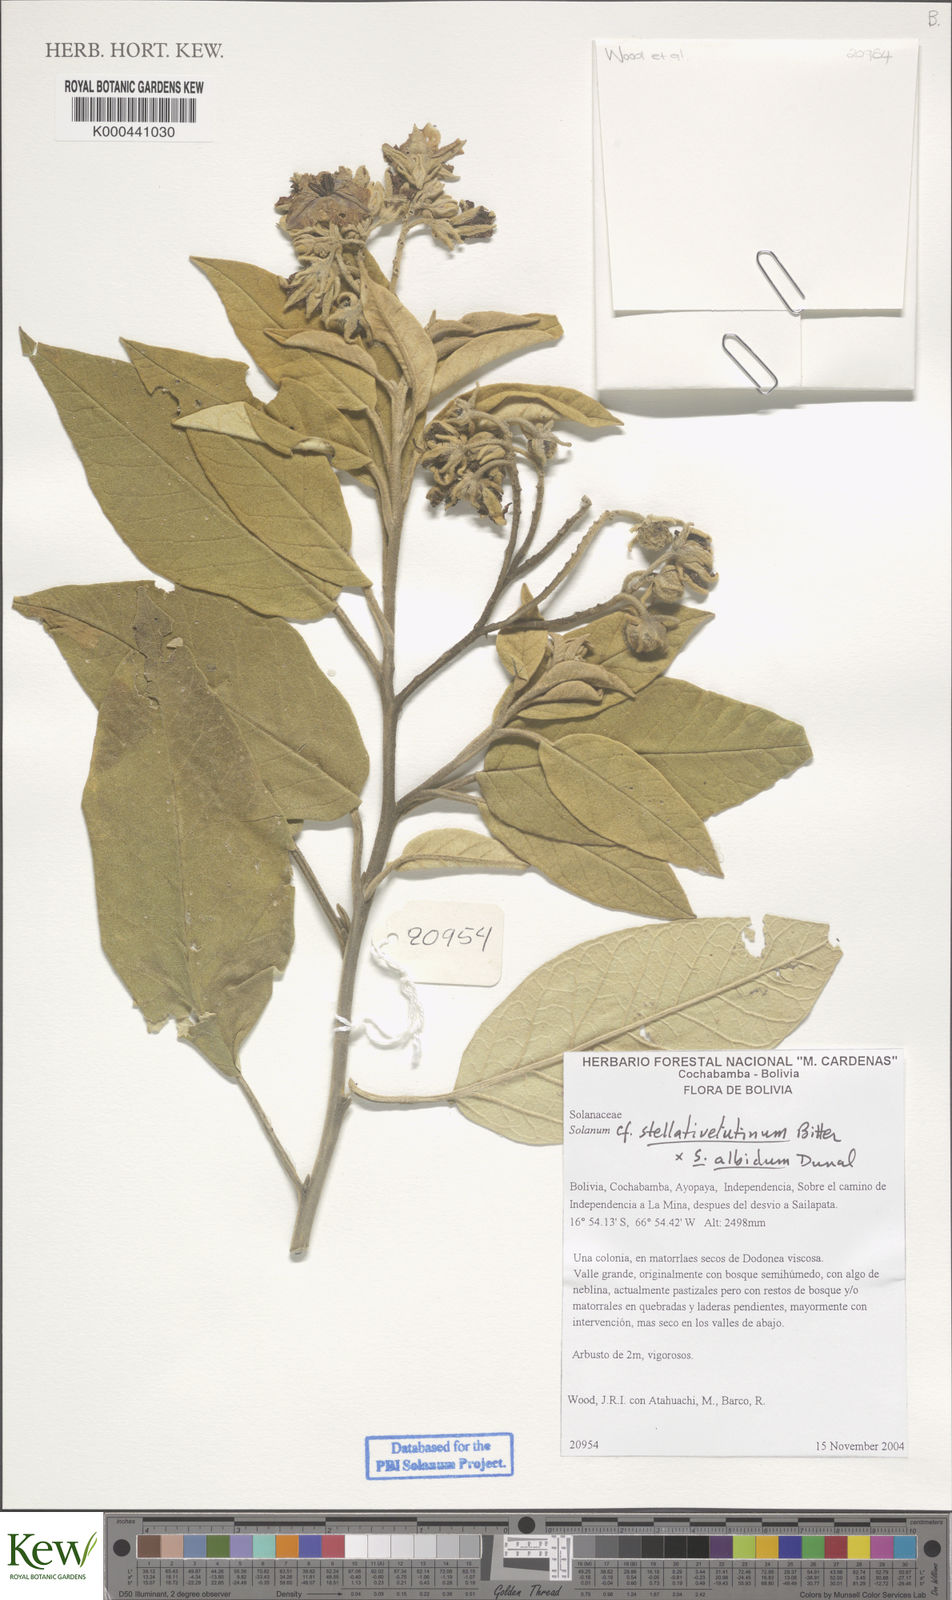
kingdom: Plantae
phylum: Tracheophyta
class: Magnoliopsida
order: Solanales
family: Solanaceae
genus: Solanum
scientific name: Solanum stellativelutinum
